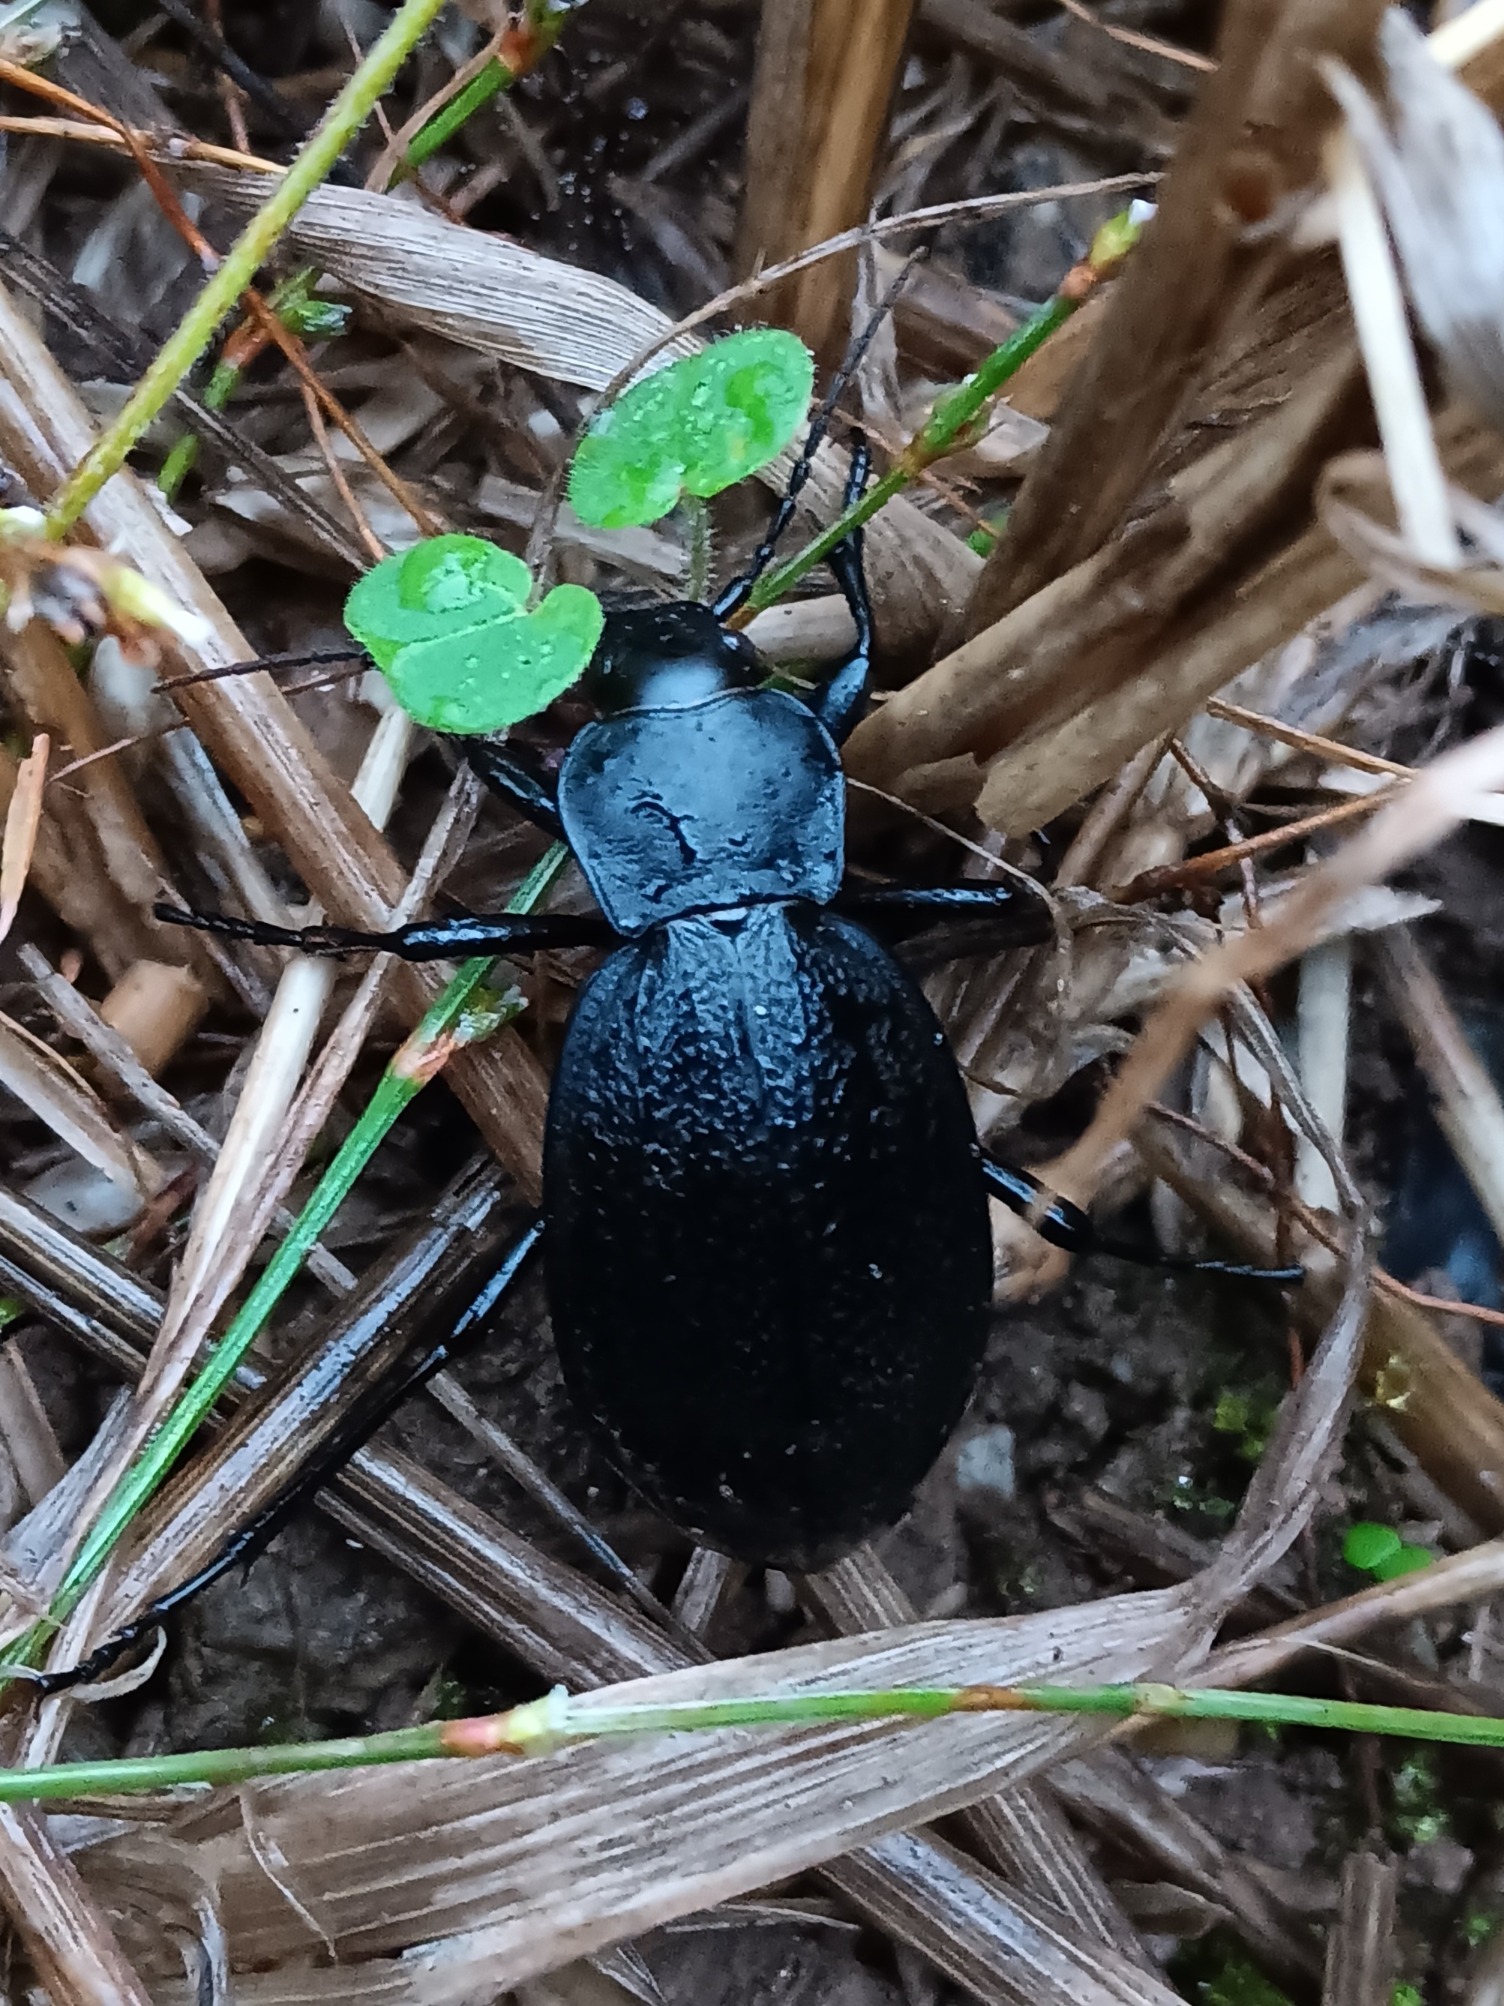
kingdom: Animalia
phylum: Arthropoda
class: Insecta
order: Coleoptera
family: Carabidae
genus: Carabus
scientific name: Carabus coriaceus
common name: Læderløber
